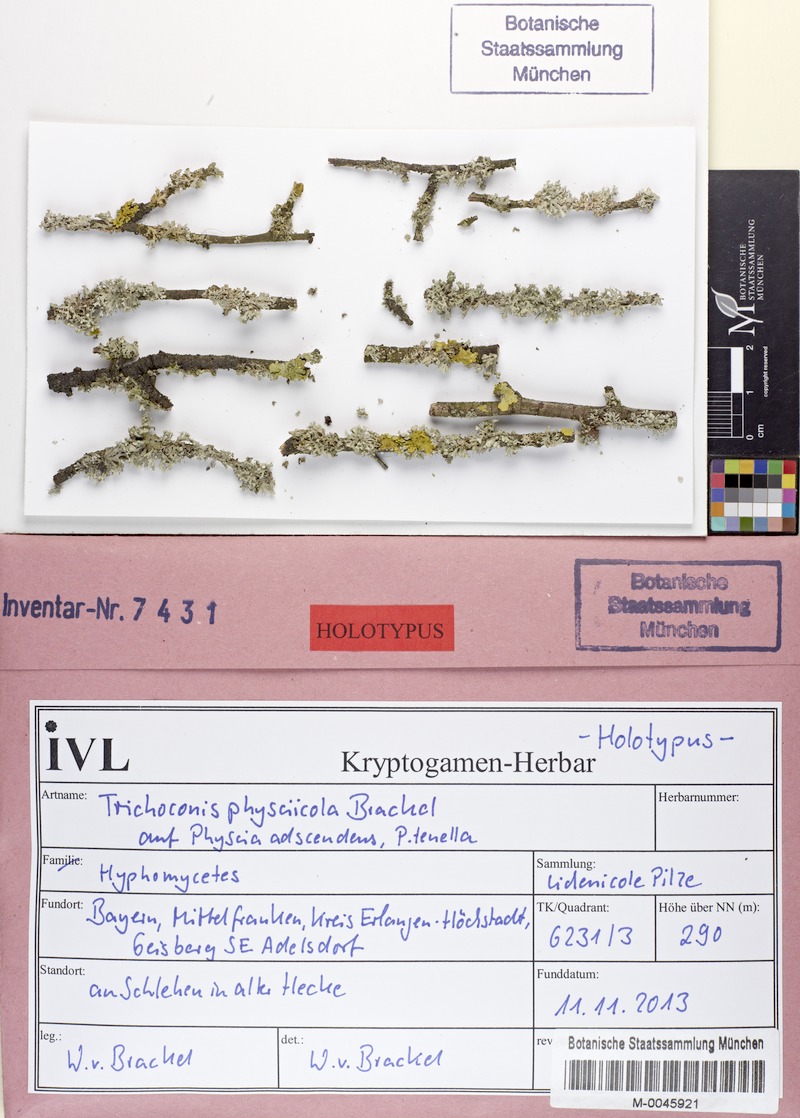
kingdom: Fungi
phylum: Ascomycota
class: Lecanoromycetes
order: Caliciales
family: Physciaceae
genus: Physcia
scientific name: Physcia adscendens
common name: Hooded rosette lichen
